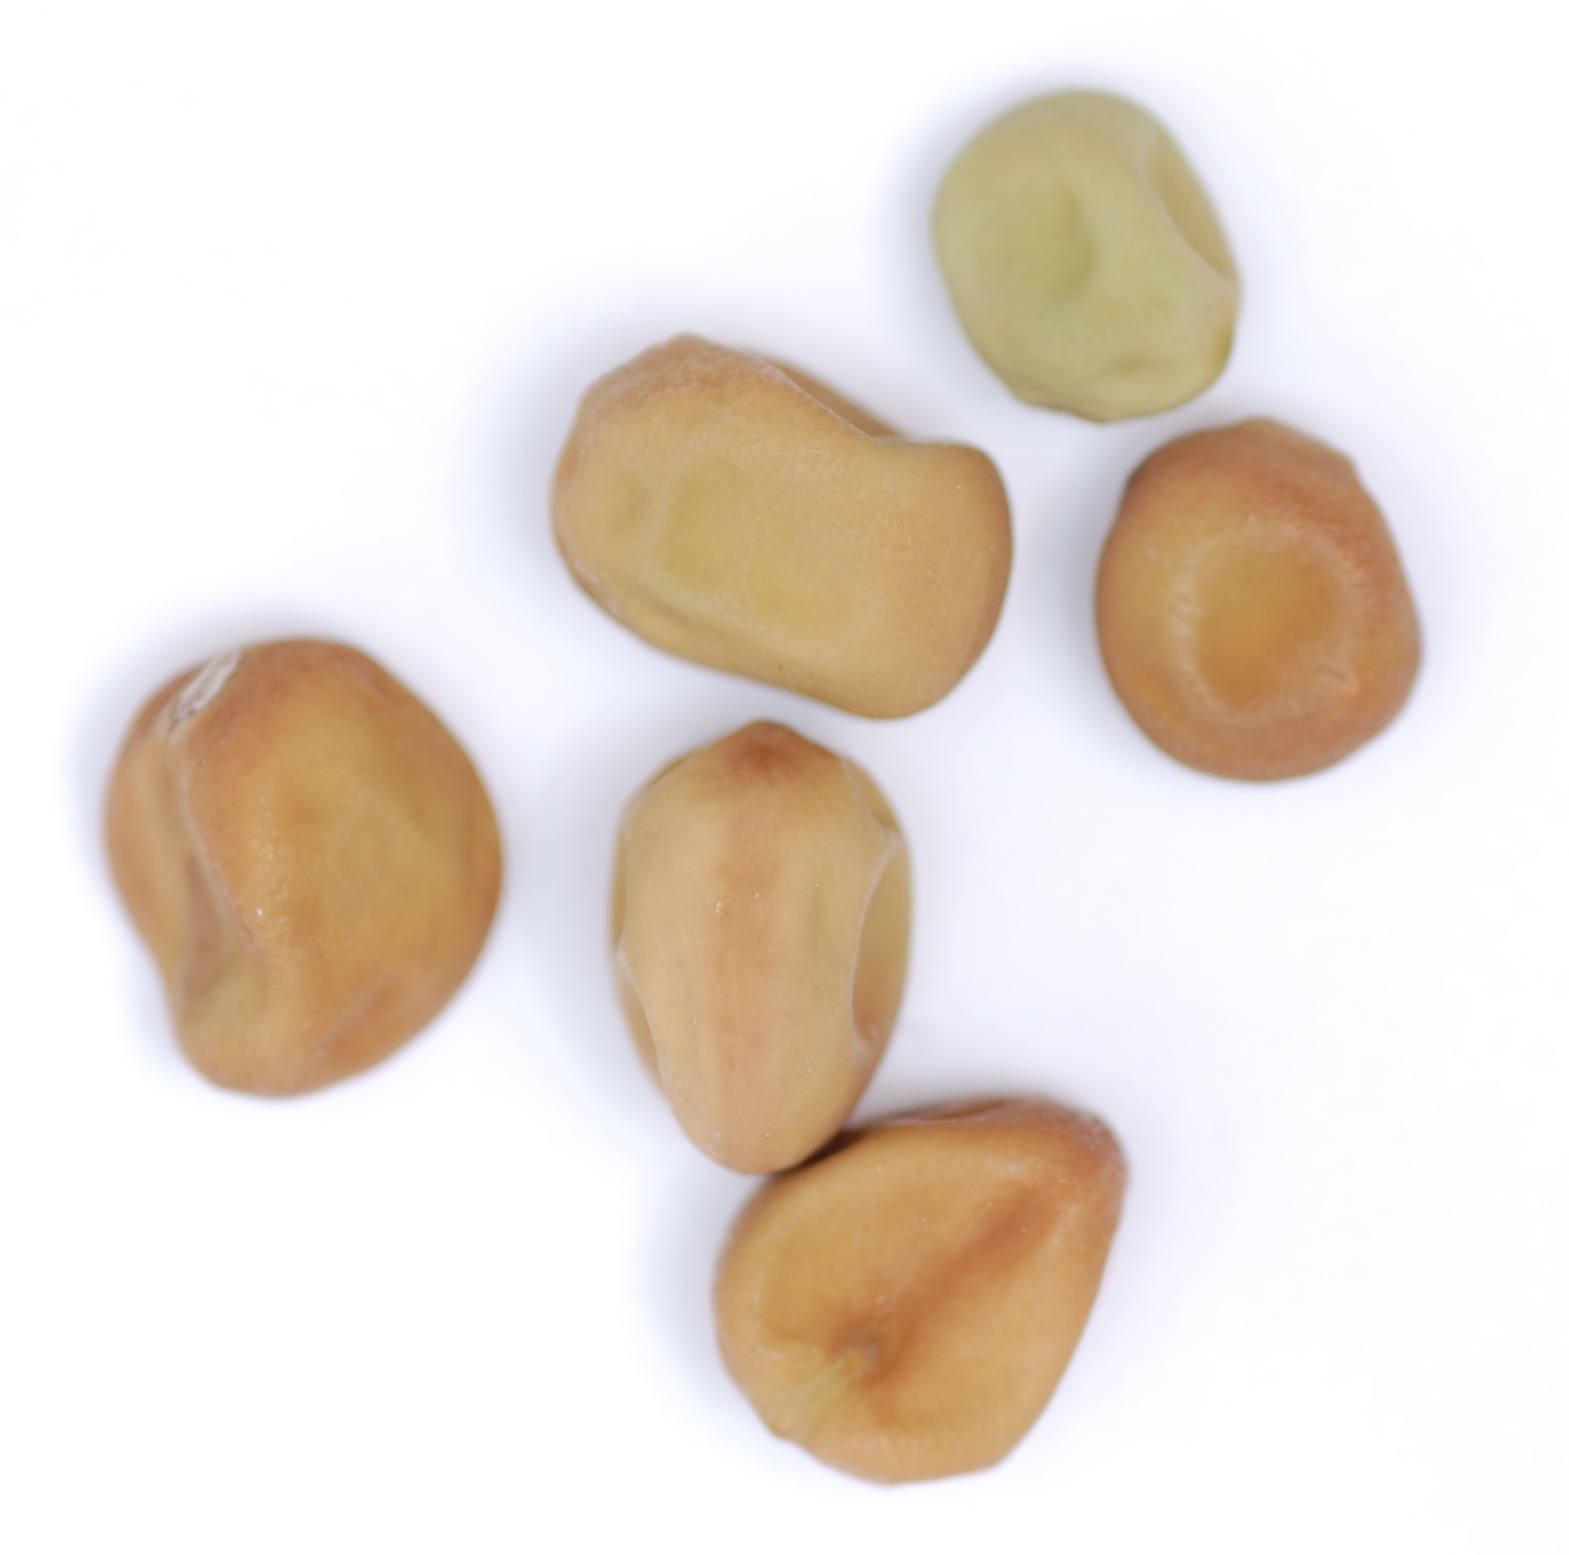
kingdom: Plantae
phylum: Tracheophyta
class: Magnoliopsida
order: Fabales
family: Fabaceae
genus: Lathyrus
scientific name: Lathyrus oleraceus
